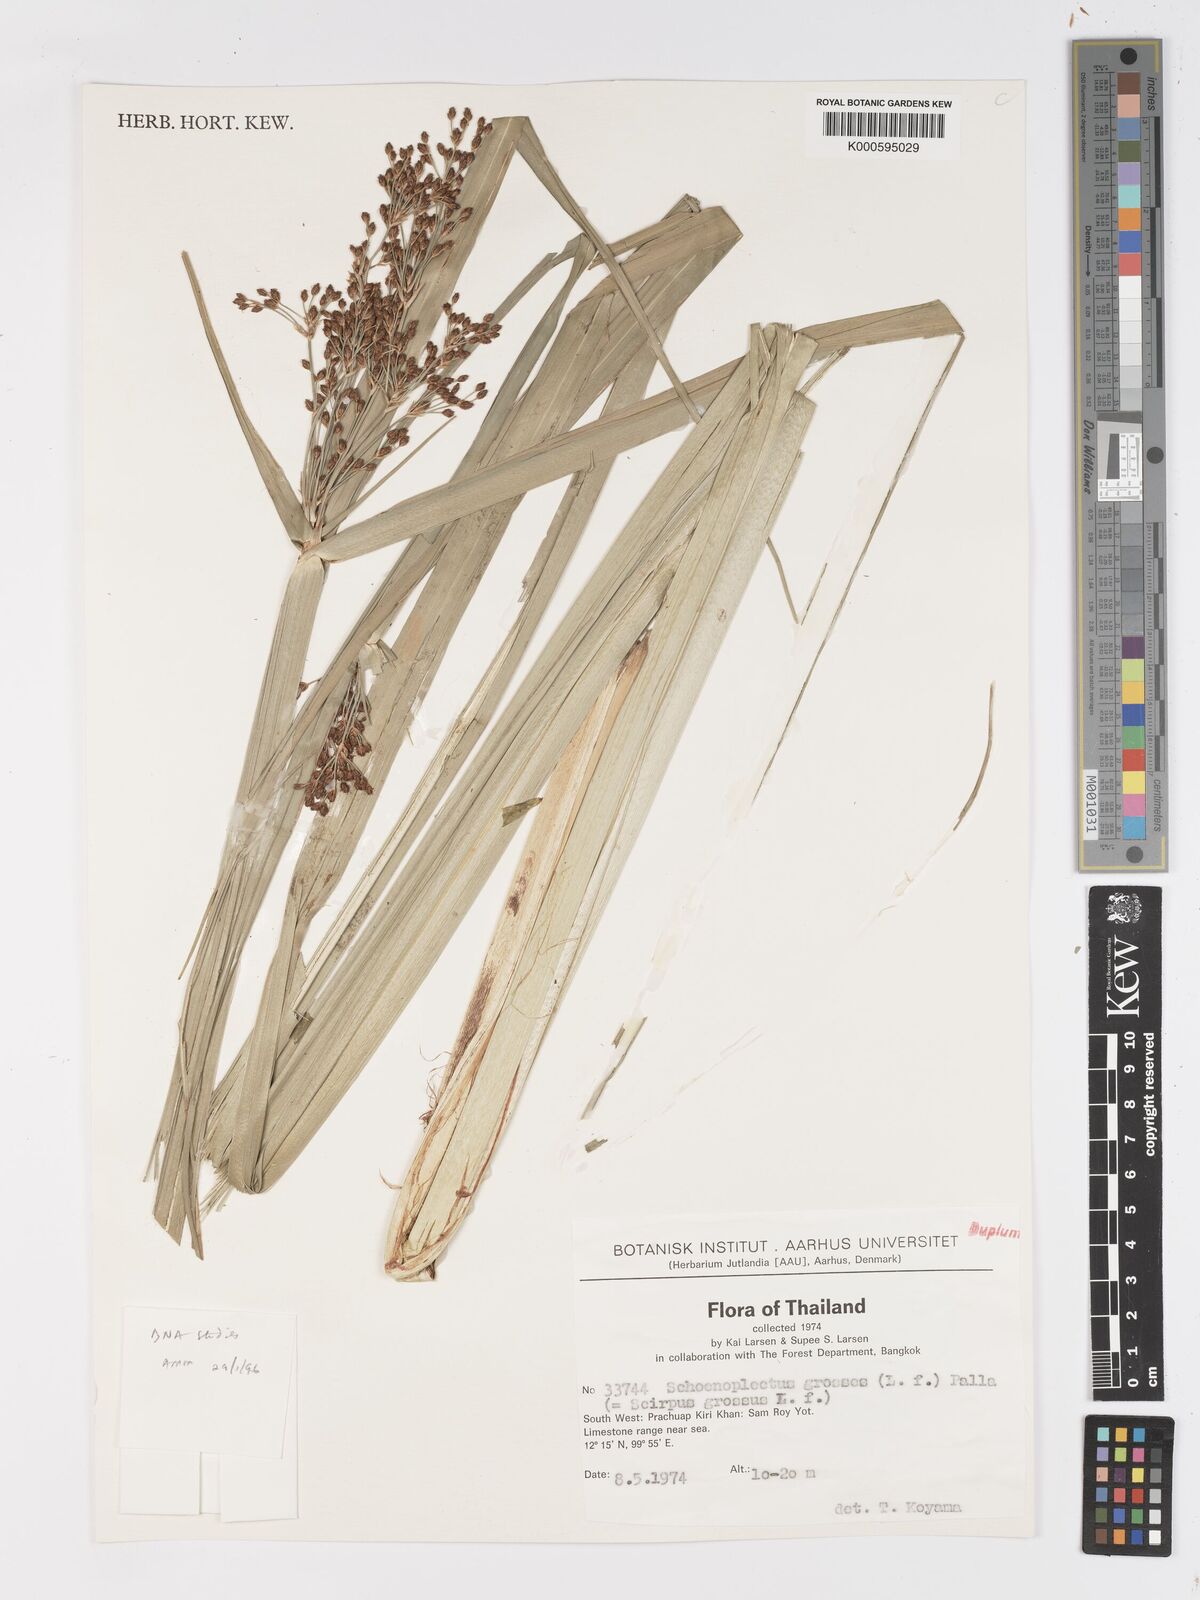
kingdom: Plantae
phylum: Tracheophyta
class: Liliopsida
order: Poales
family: Cyperaceae
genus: Actinoscirpus
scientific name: Actinoscirpus grossus
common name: Giant bur rush
